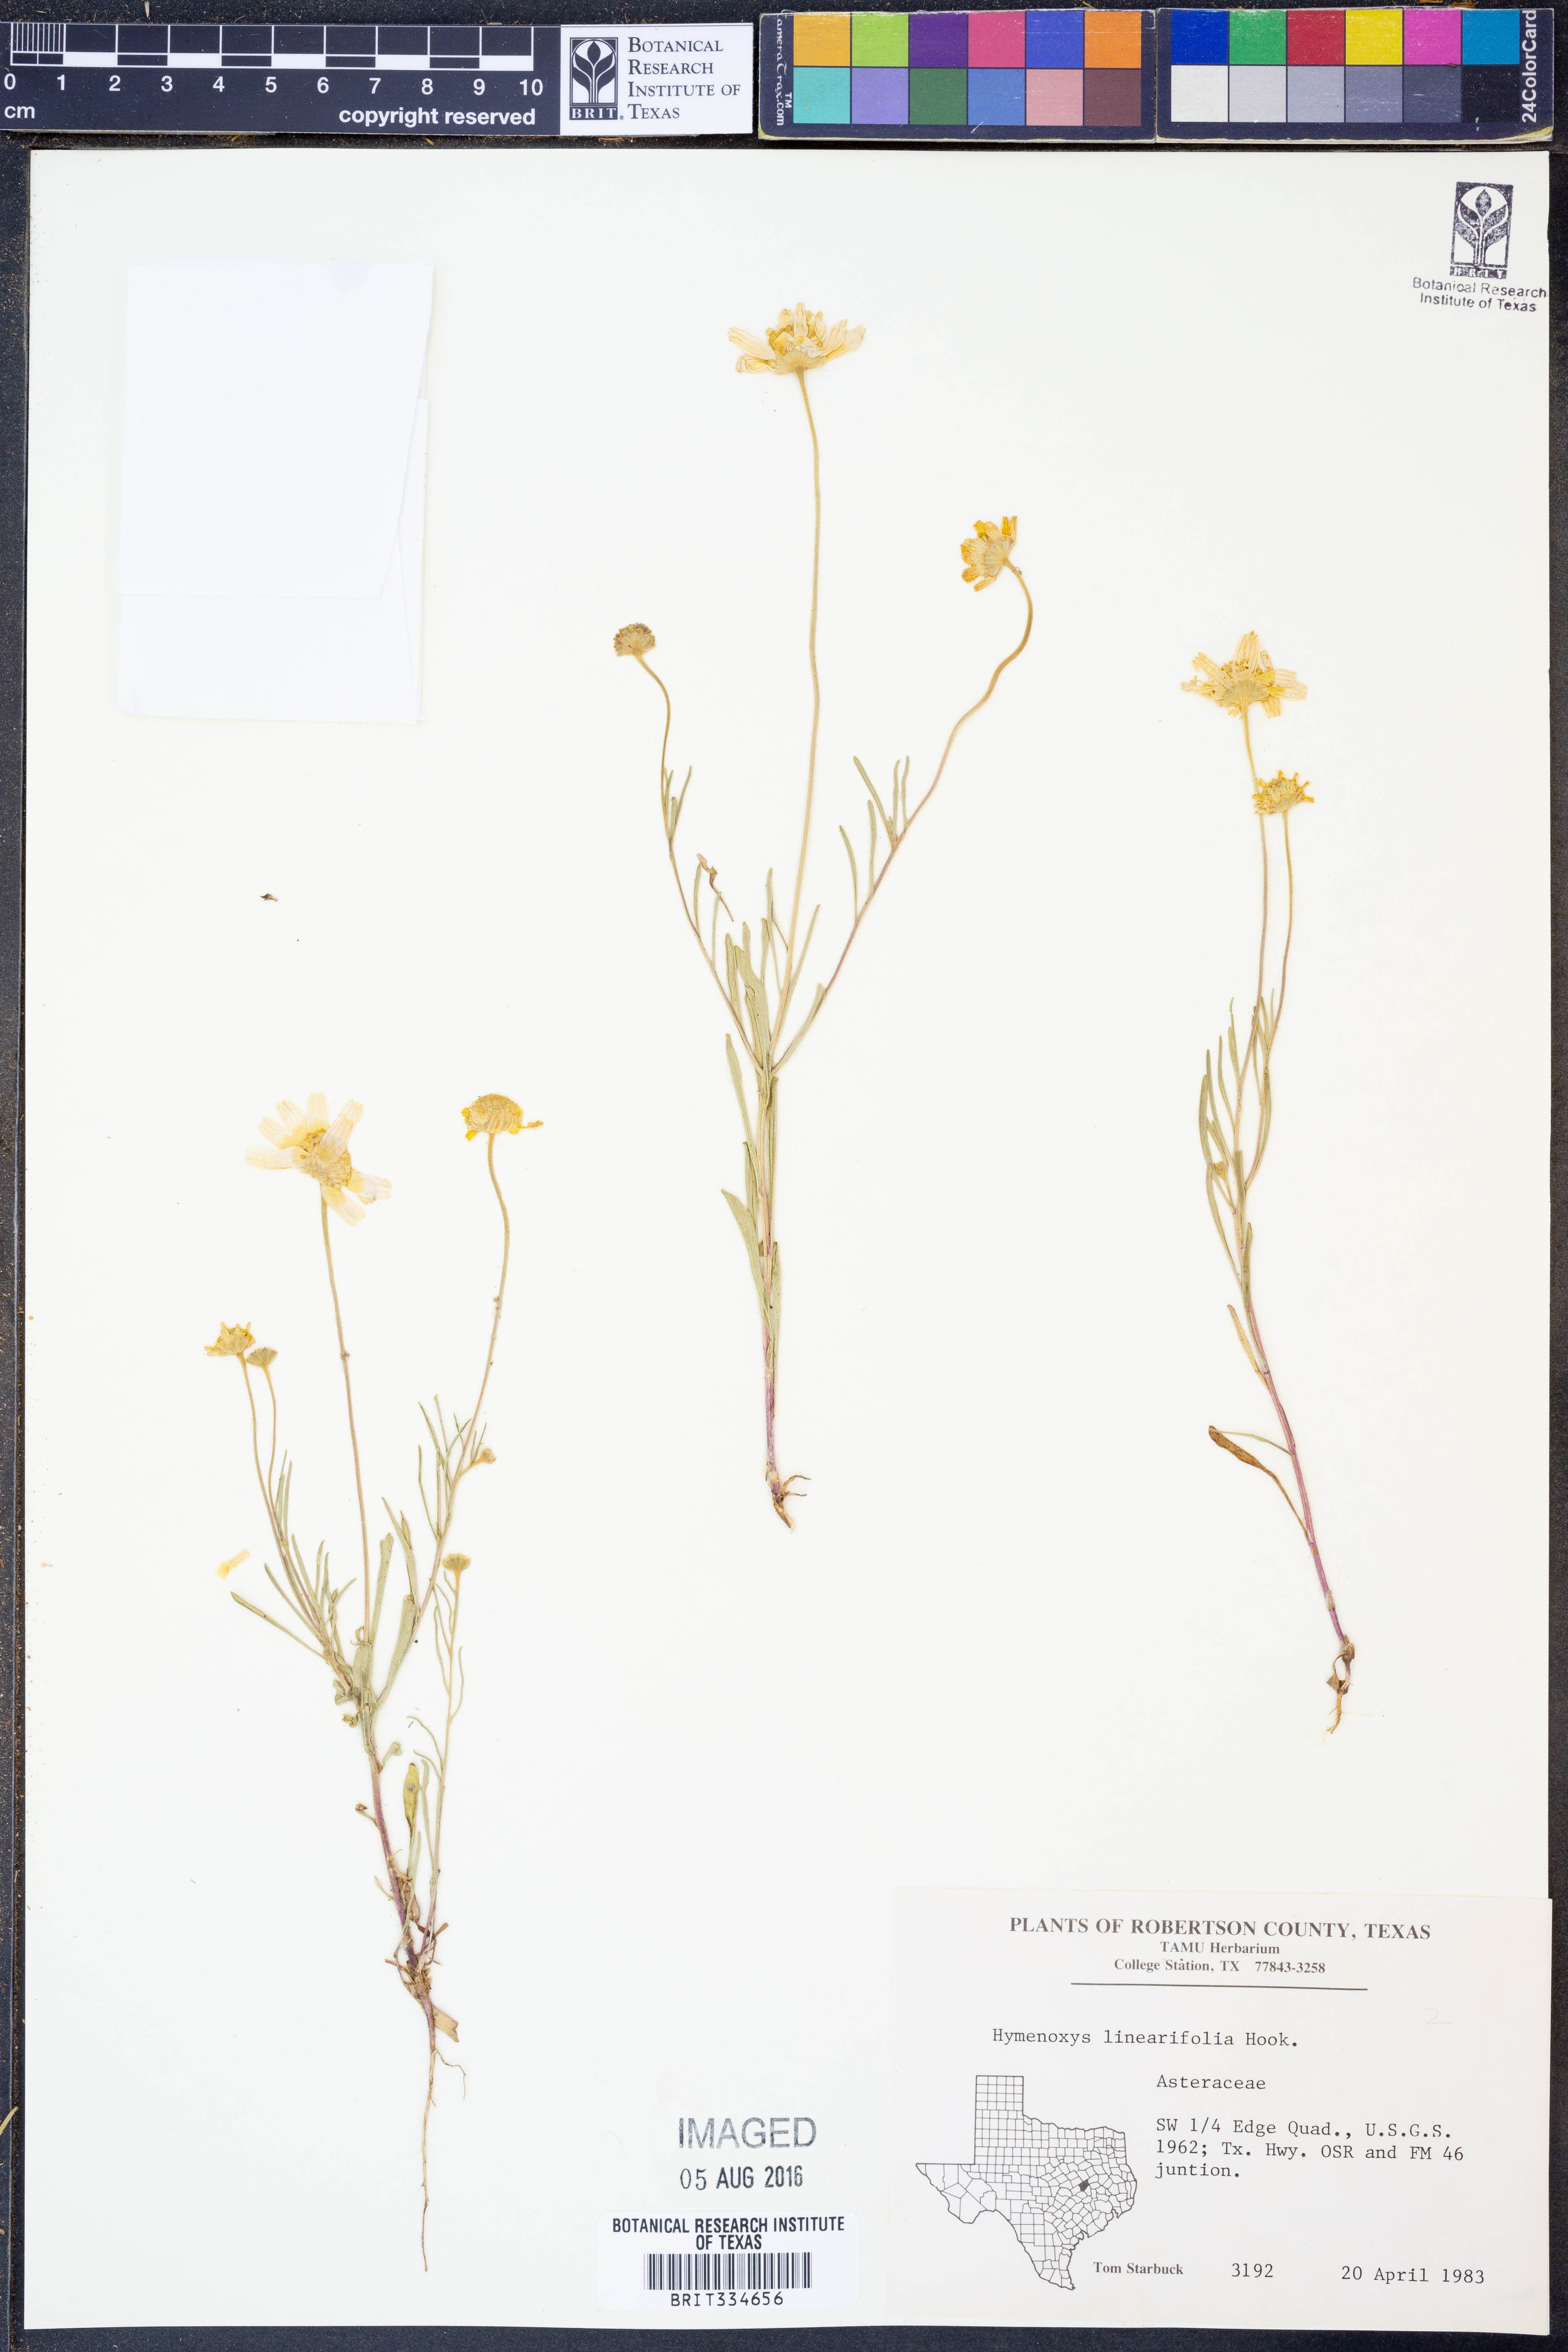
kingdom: Plantae
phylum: Tracheophyta
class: Magnoliopsida
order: Asterales
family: Asteraceae
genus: Tetraneuris
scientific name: Tetraneuris linearifolia
